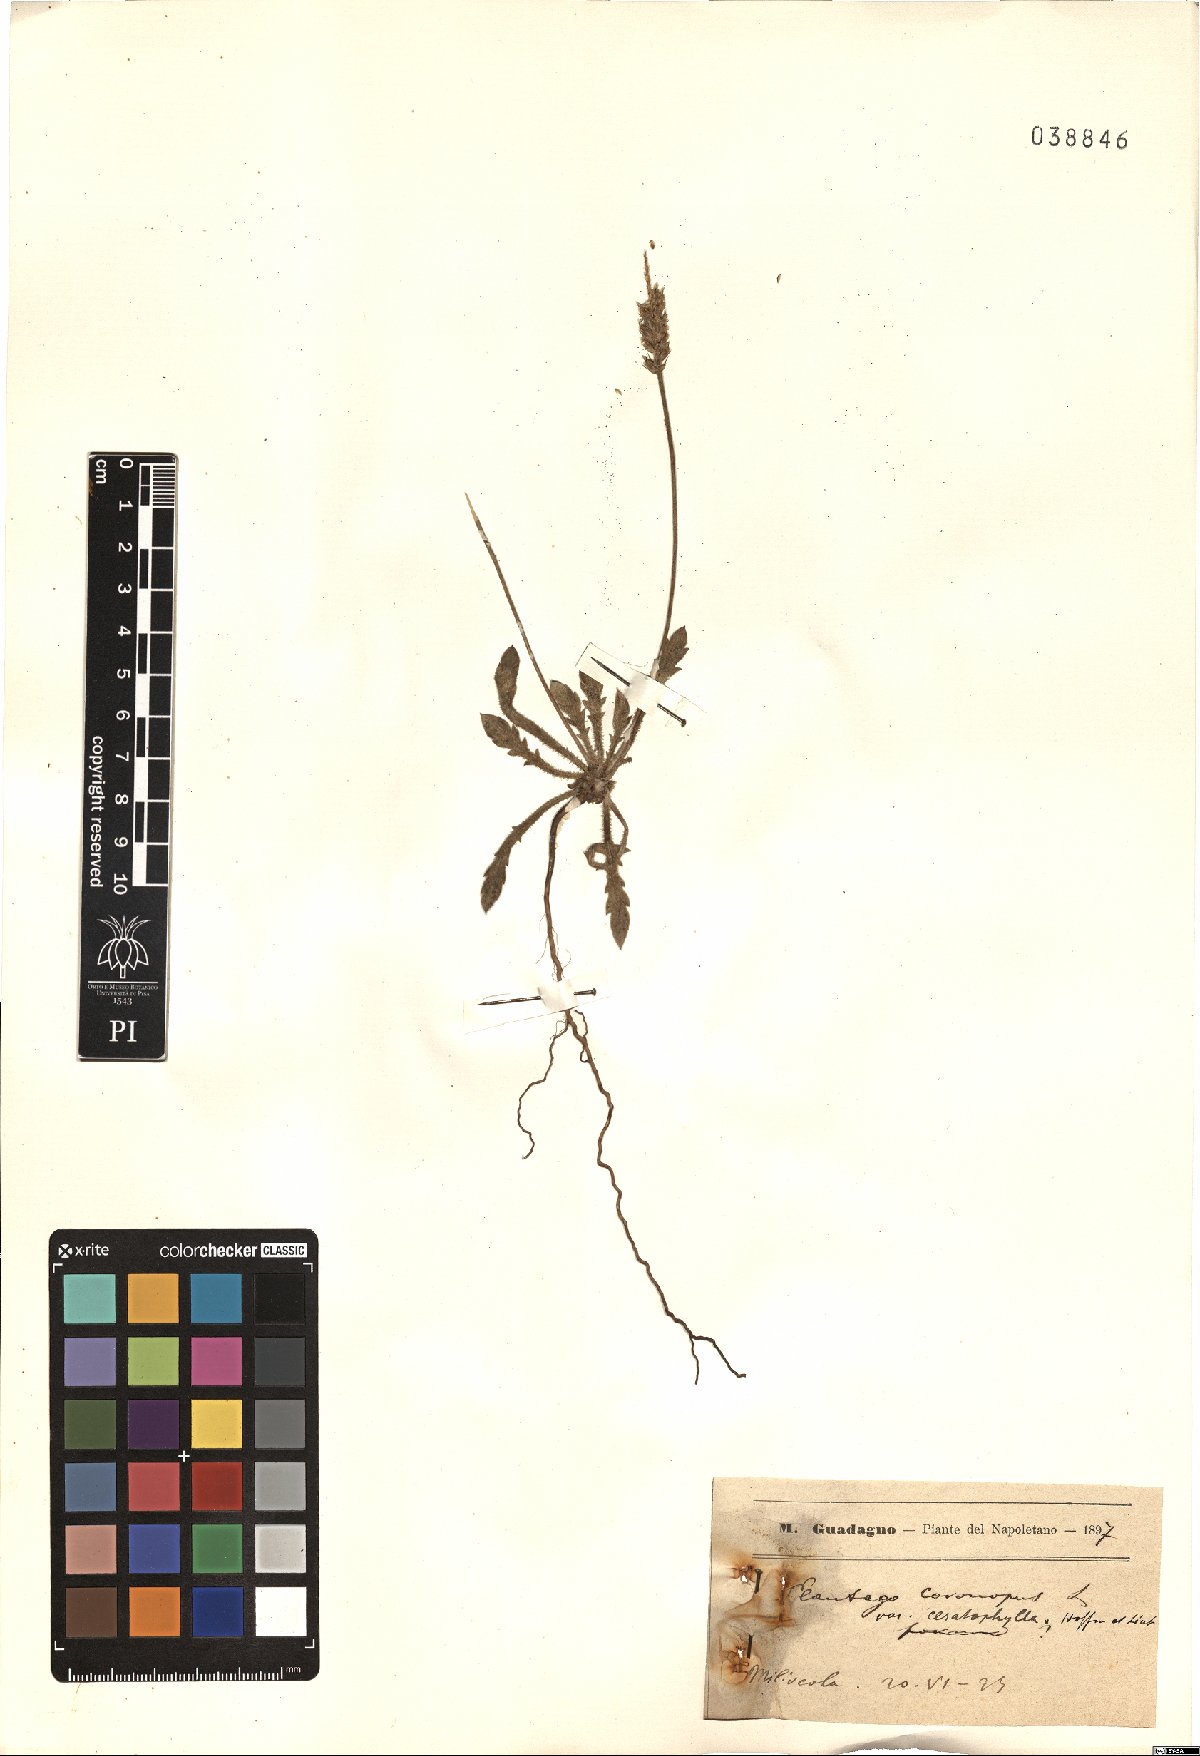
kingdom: Plantae
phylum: Tracheophyta
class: Magnoliopsida
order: Lamiales
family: Plantaginaceae
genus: Plantago
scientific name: Plantago coronopus
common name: Buck's-horn plantain
